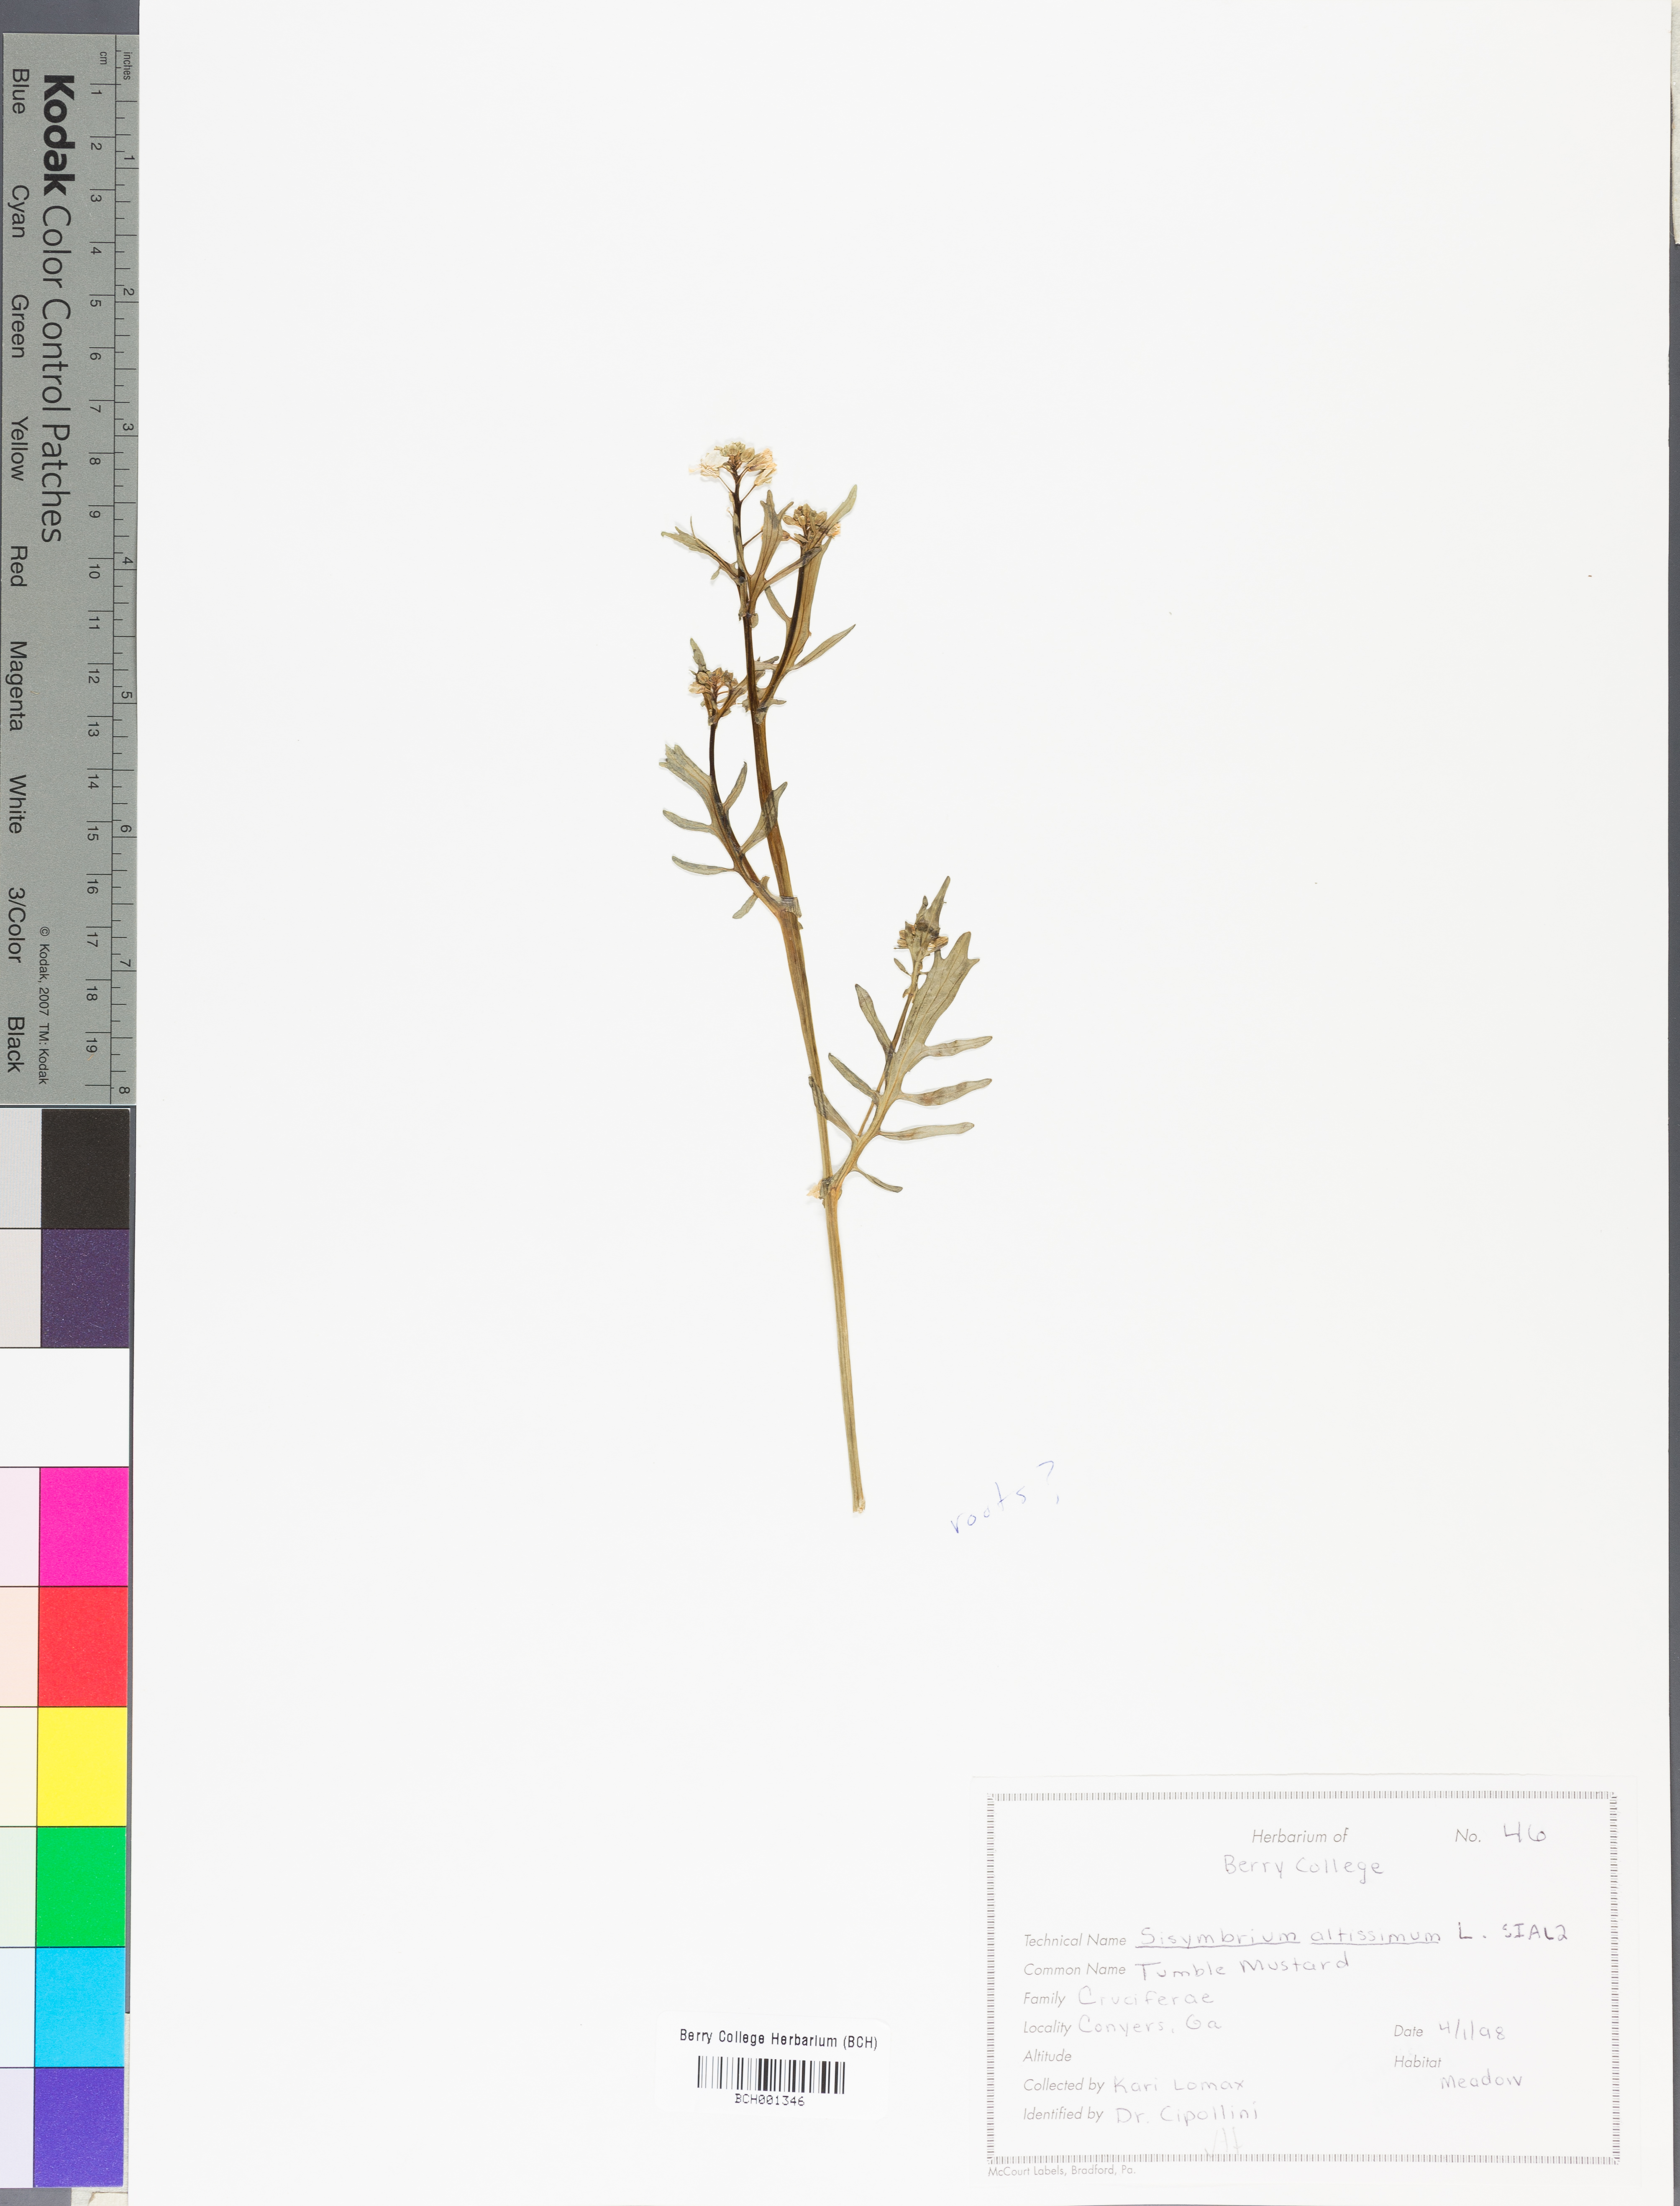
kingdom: Plantae
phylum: Tracheophyta
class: Magnoliopsida
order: Brassicales
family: Brassicaceae
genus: Sisymbrium
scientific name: Sisymbrium altissimum
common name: Tall rocket
